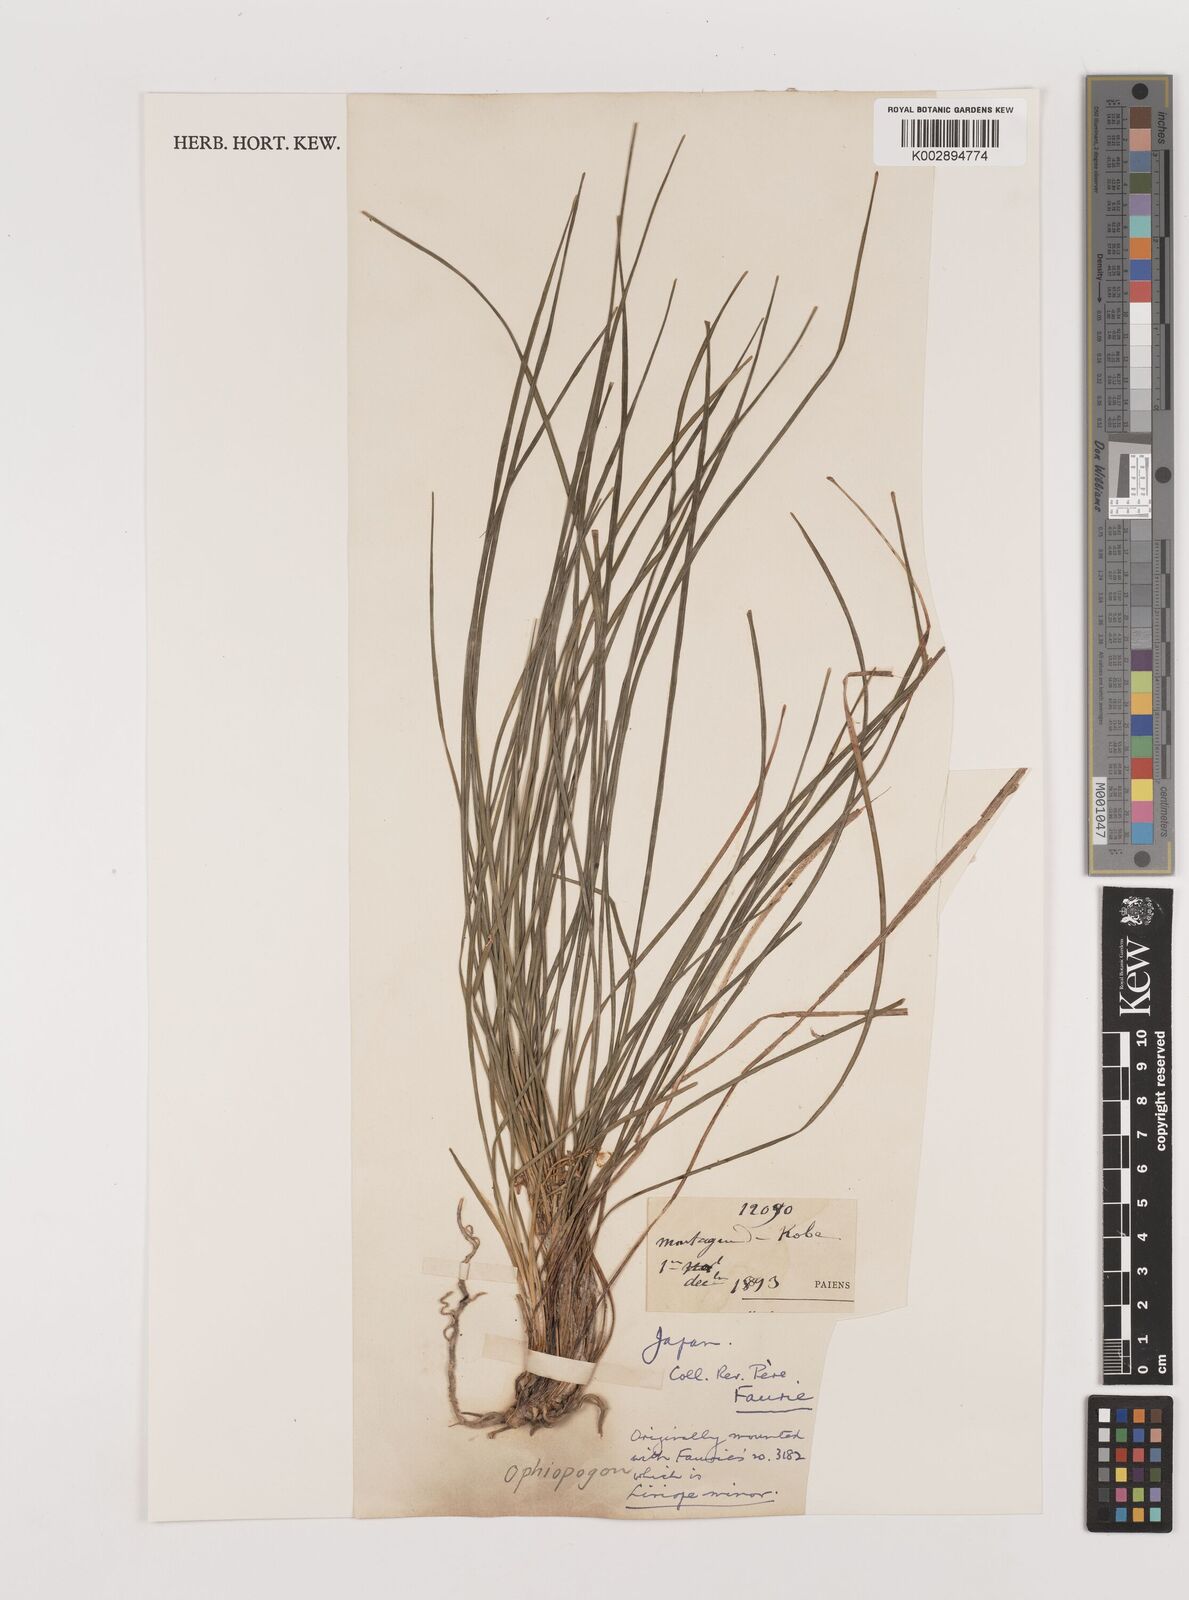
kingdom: Plantae
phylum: Tracheophyta
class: Liliopsida
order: Asparagales
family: Asparagaceae
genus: Ophiopogon
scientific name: Ophiopogon japonicus
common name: Dwarf lilyturf
